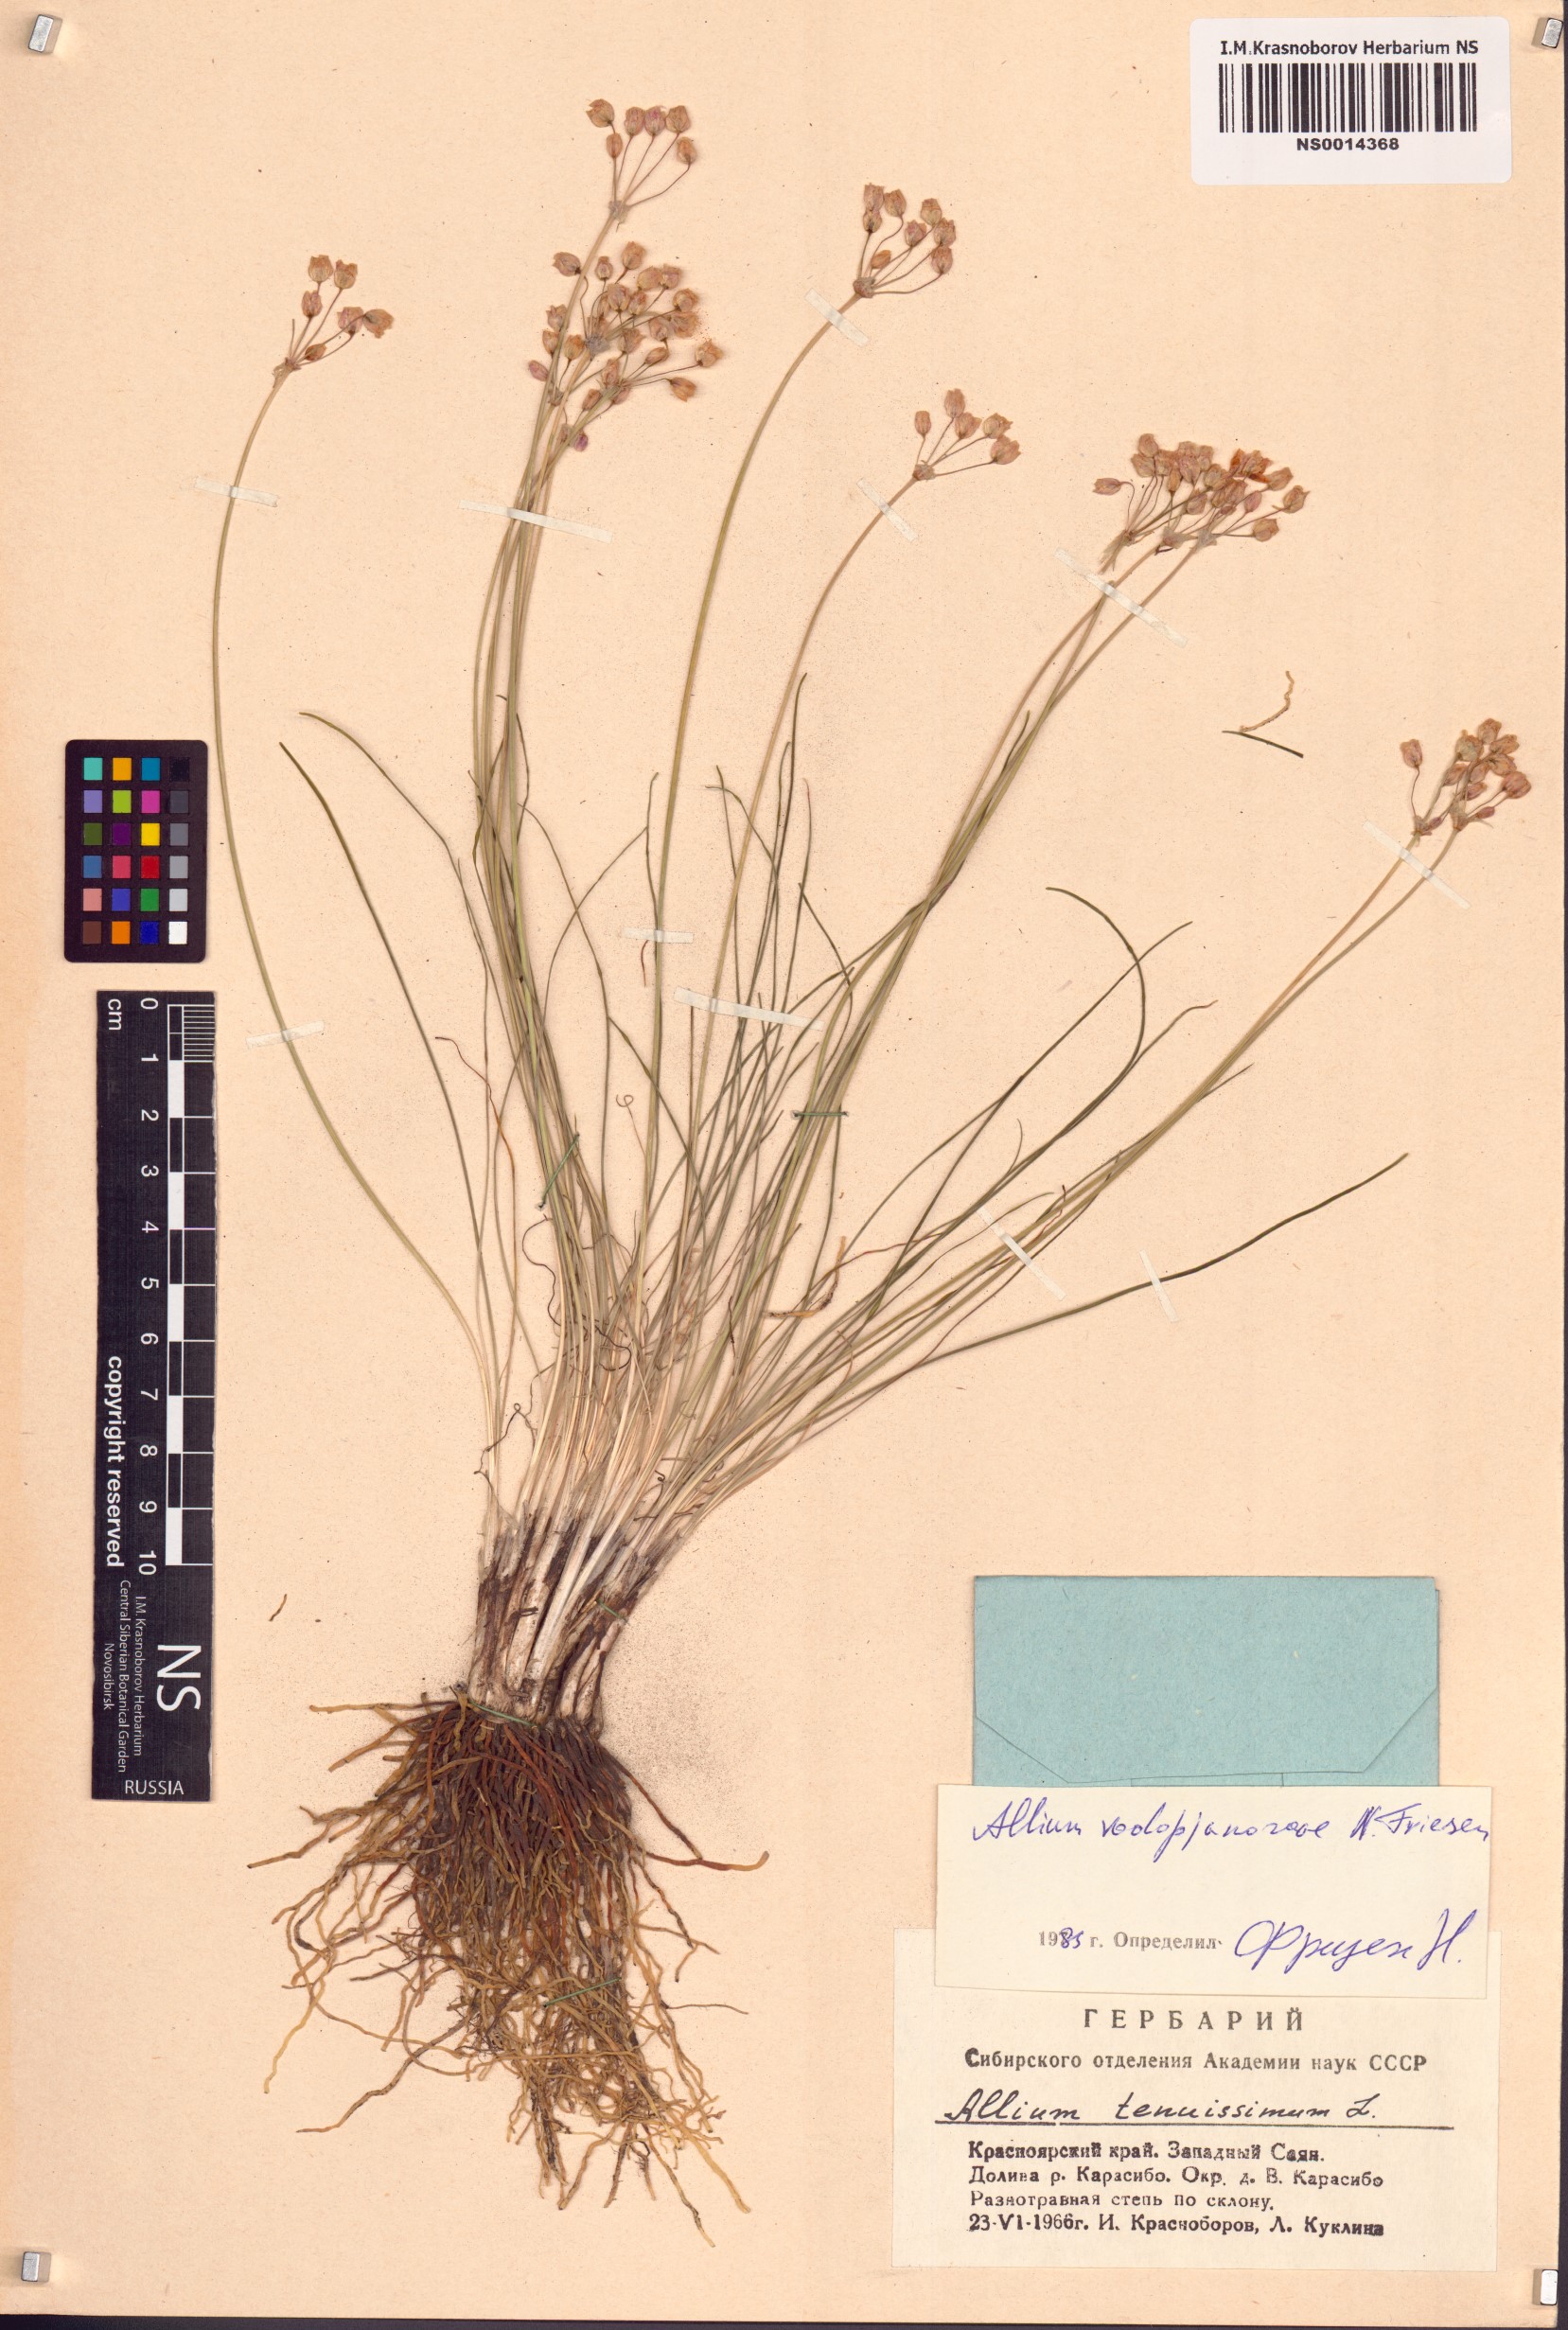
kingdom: Plantae
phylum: Tracheophyta
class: Liliopsida
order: Asparagales
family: Amaryllidaceae
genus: Allium
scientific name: Allium vodopjanovae
